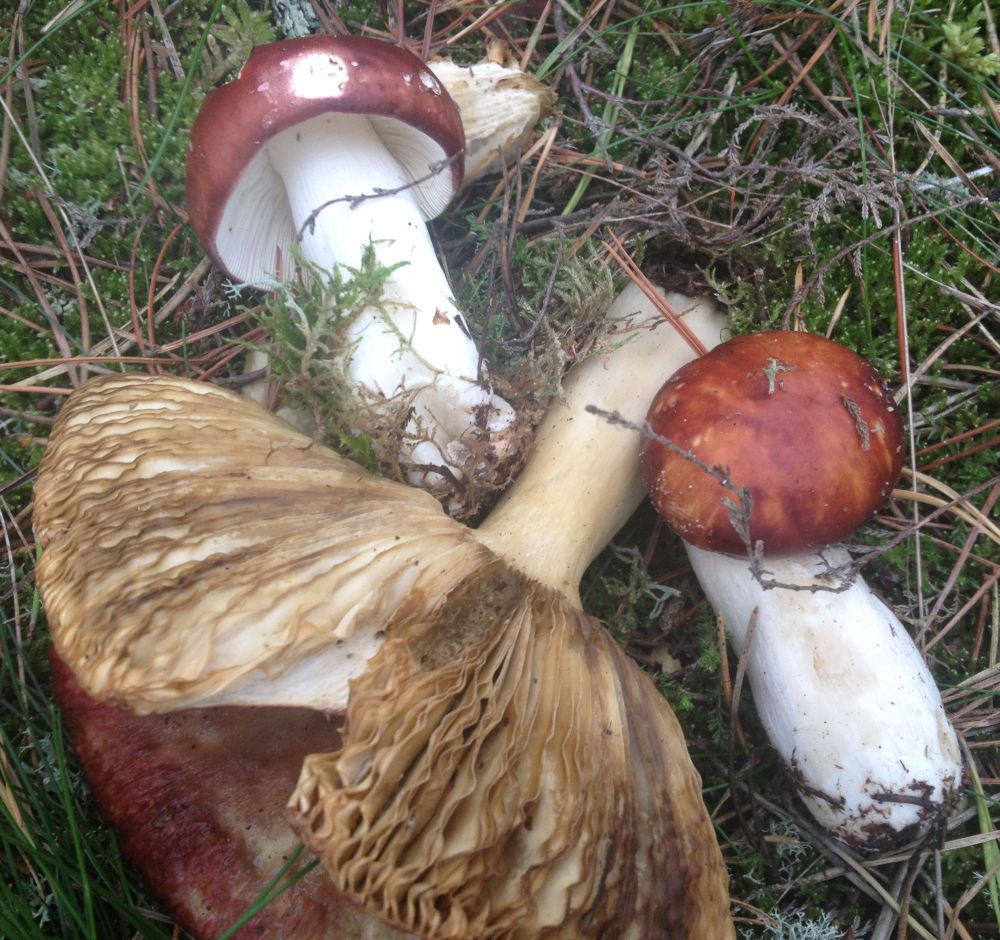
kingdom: Fungi
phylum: Basidiomycota
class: Agaricomycetes
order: Russulales
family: Russulaceae
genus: Russula
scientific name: Russula paludosa
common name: prægtig skørhat
